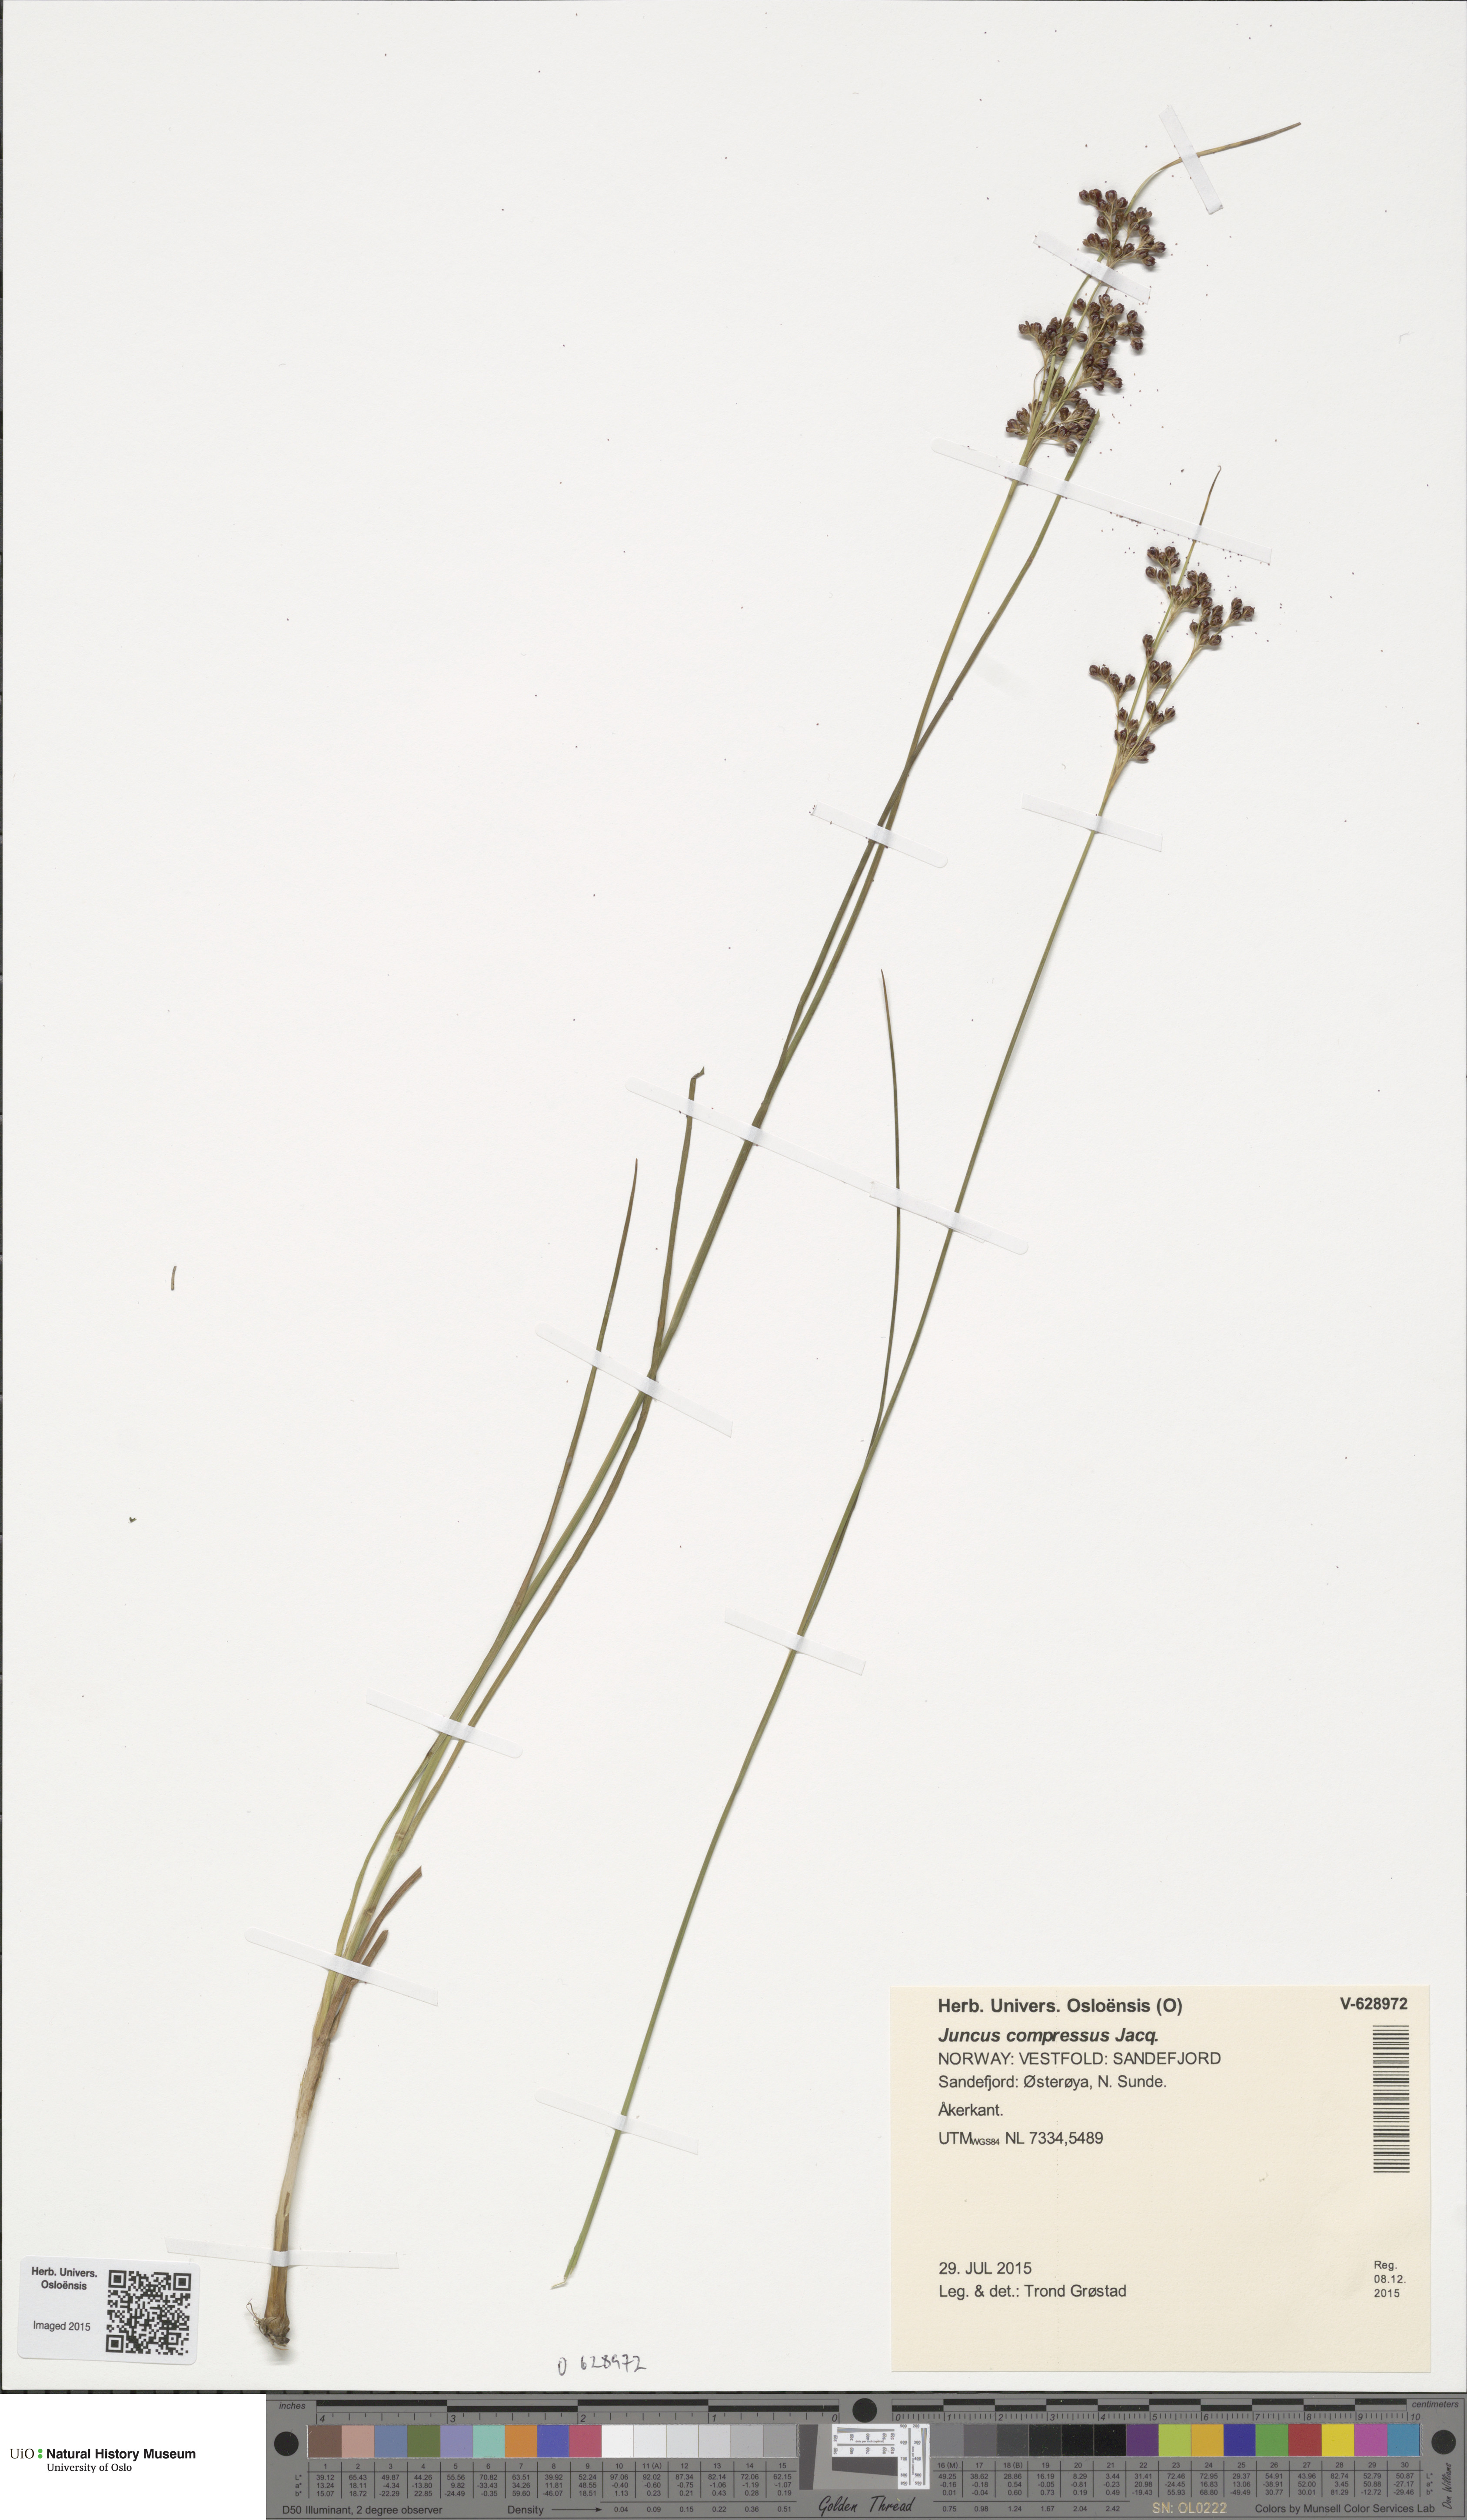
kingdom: Plantae
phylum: Tracheophyta
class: Liliopsida
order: Poales
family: Juncaceae
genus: Juncus
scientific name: Juncus compressus
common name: Round-fruited rush
